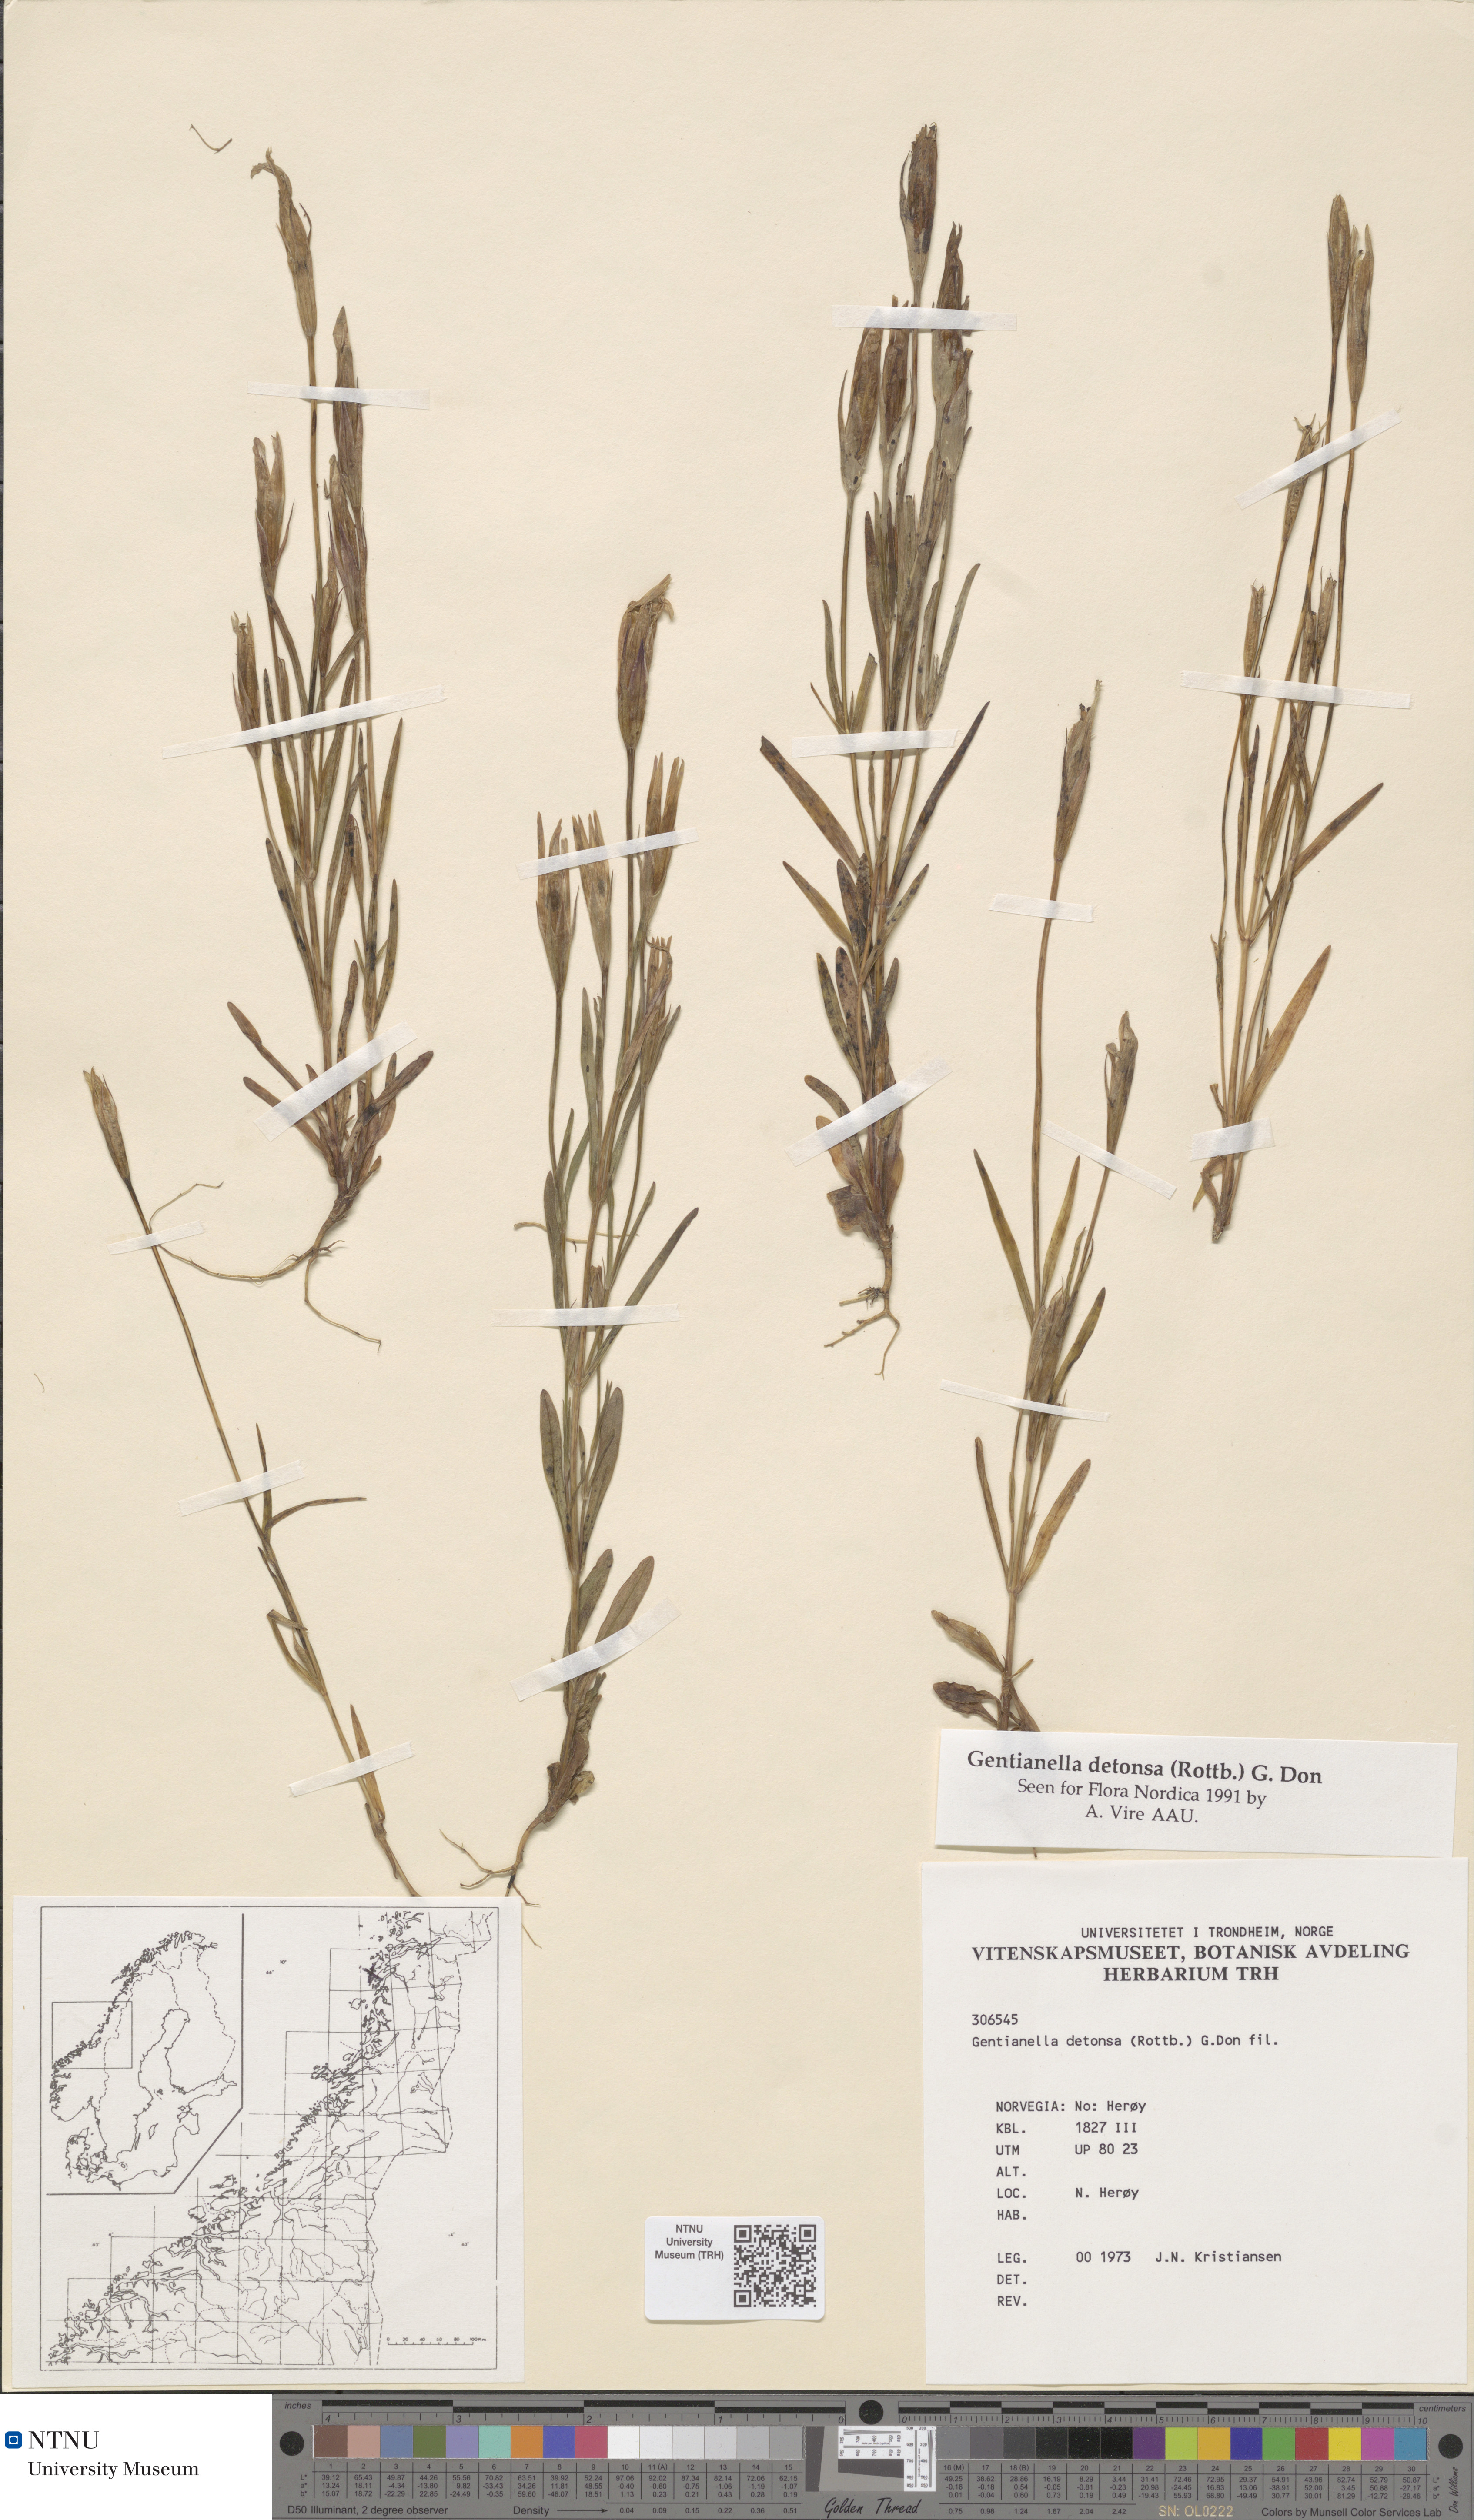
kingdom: Plantae
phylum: Tracheophyta
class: Magnoliopsida
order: Gentianales
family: Gentianaceae
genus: Gentianopsis
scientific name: Gentianopsis detonsa
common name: Fringed-gentian
